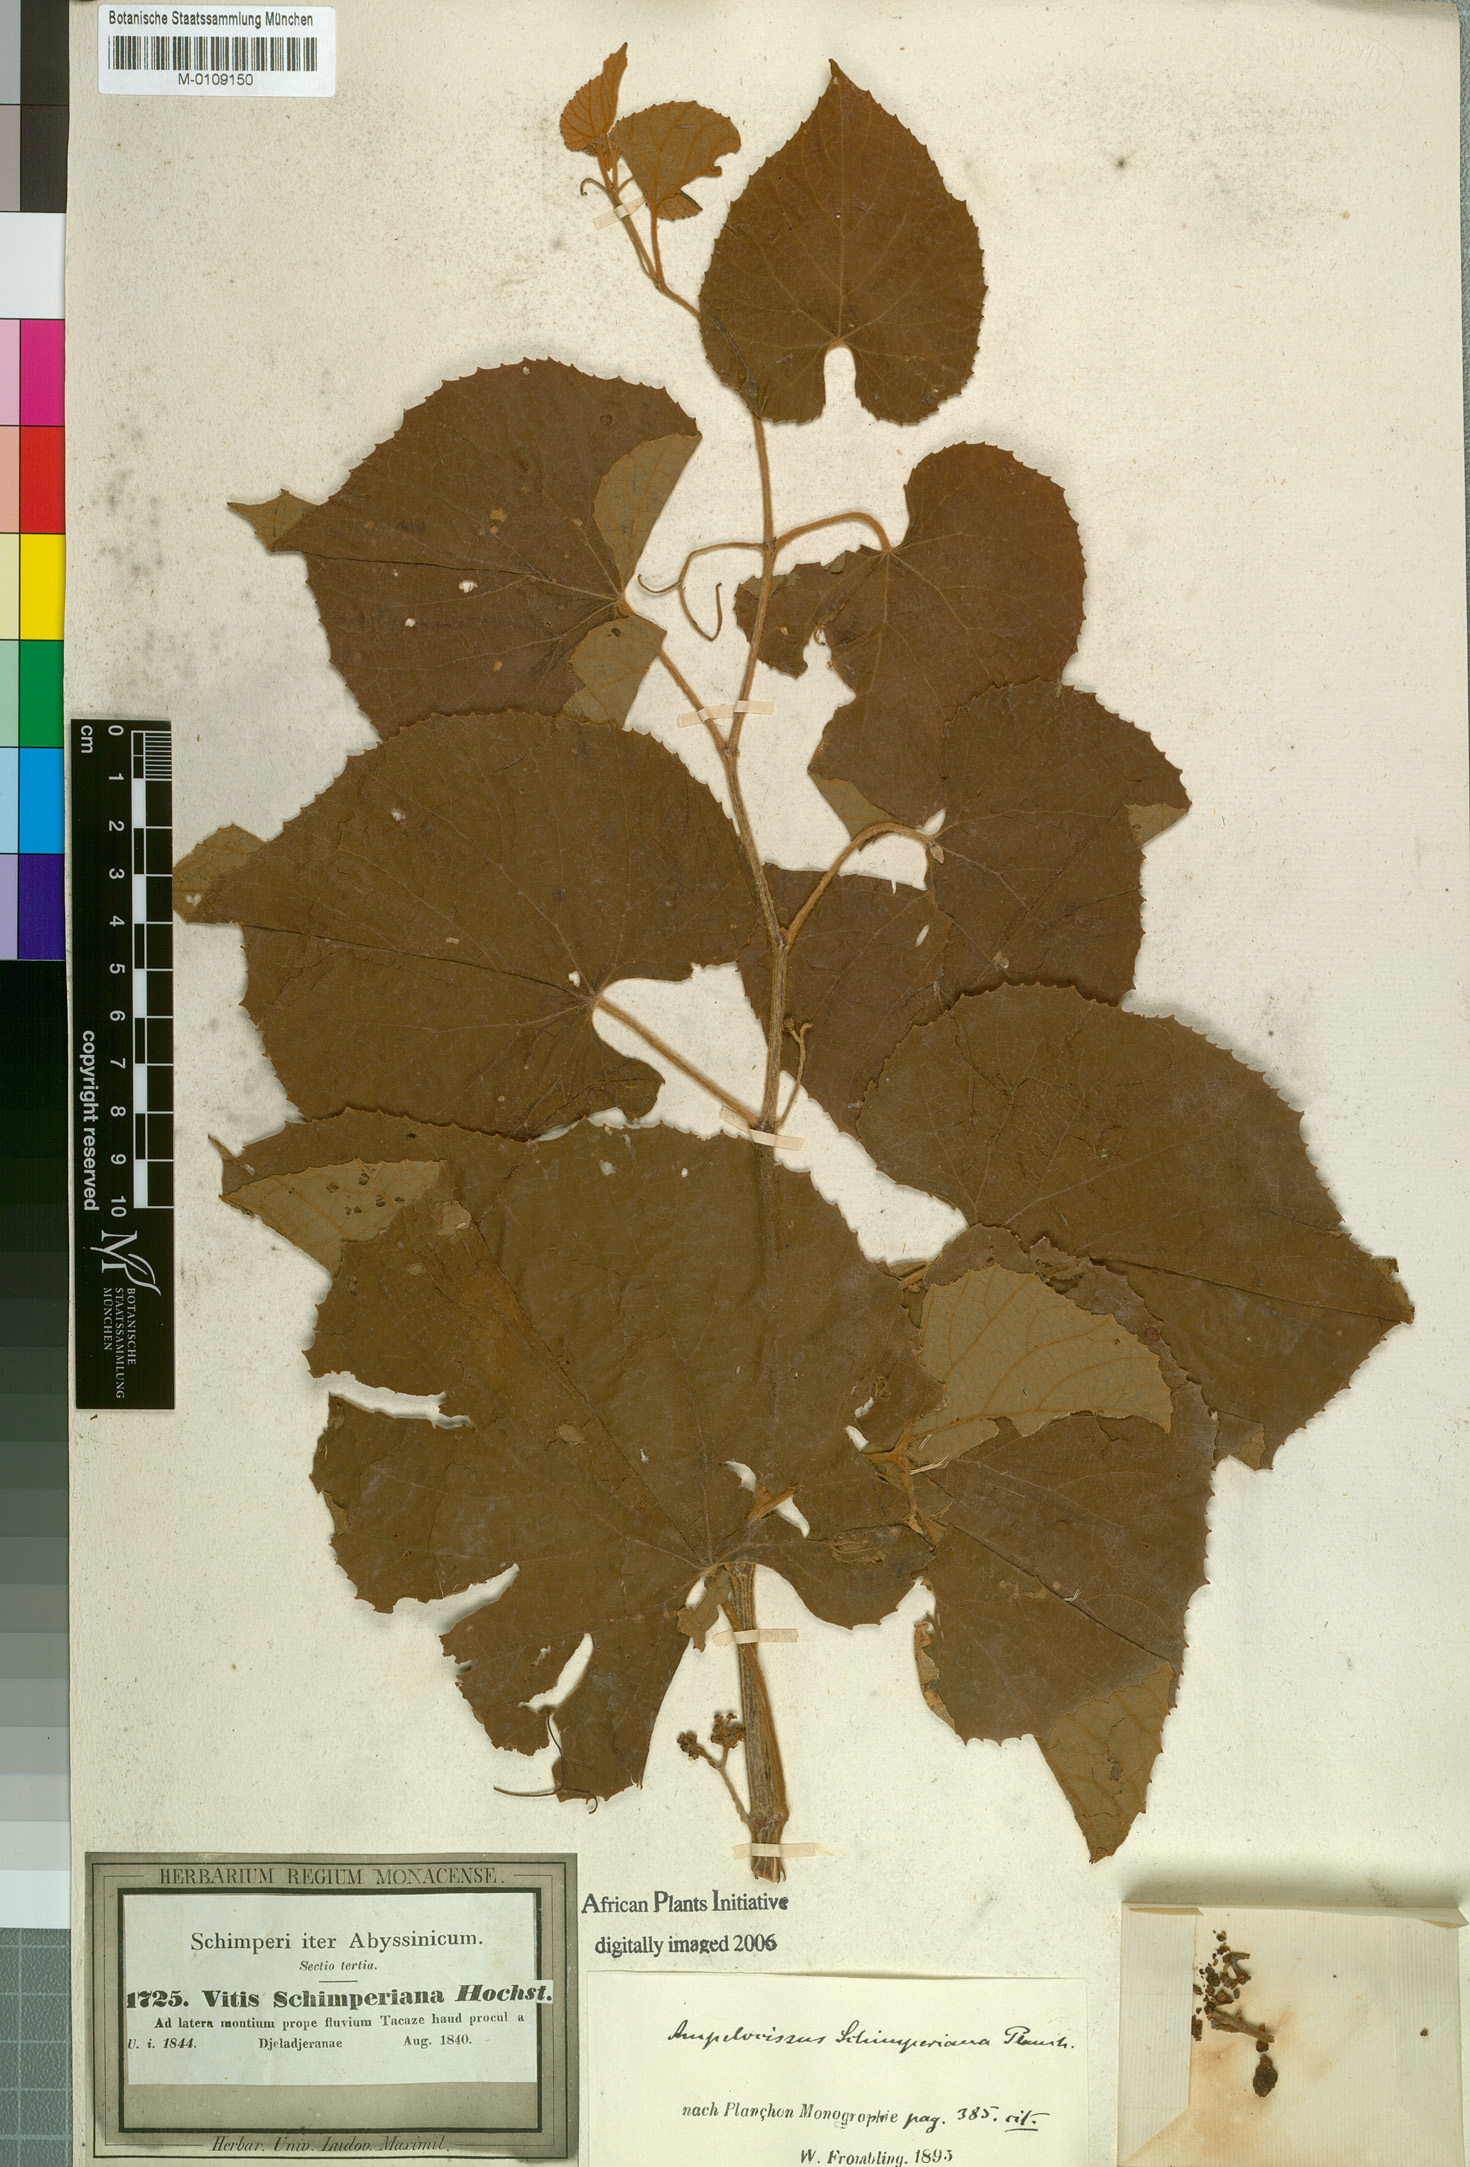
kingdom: Plantae
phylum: Tracheophyta
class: Magnoliopsida
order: Vitales
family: Vitaceae
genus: Ampelocissus
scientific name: Ampelocissus schimperiana
